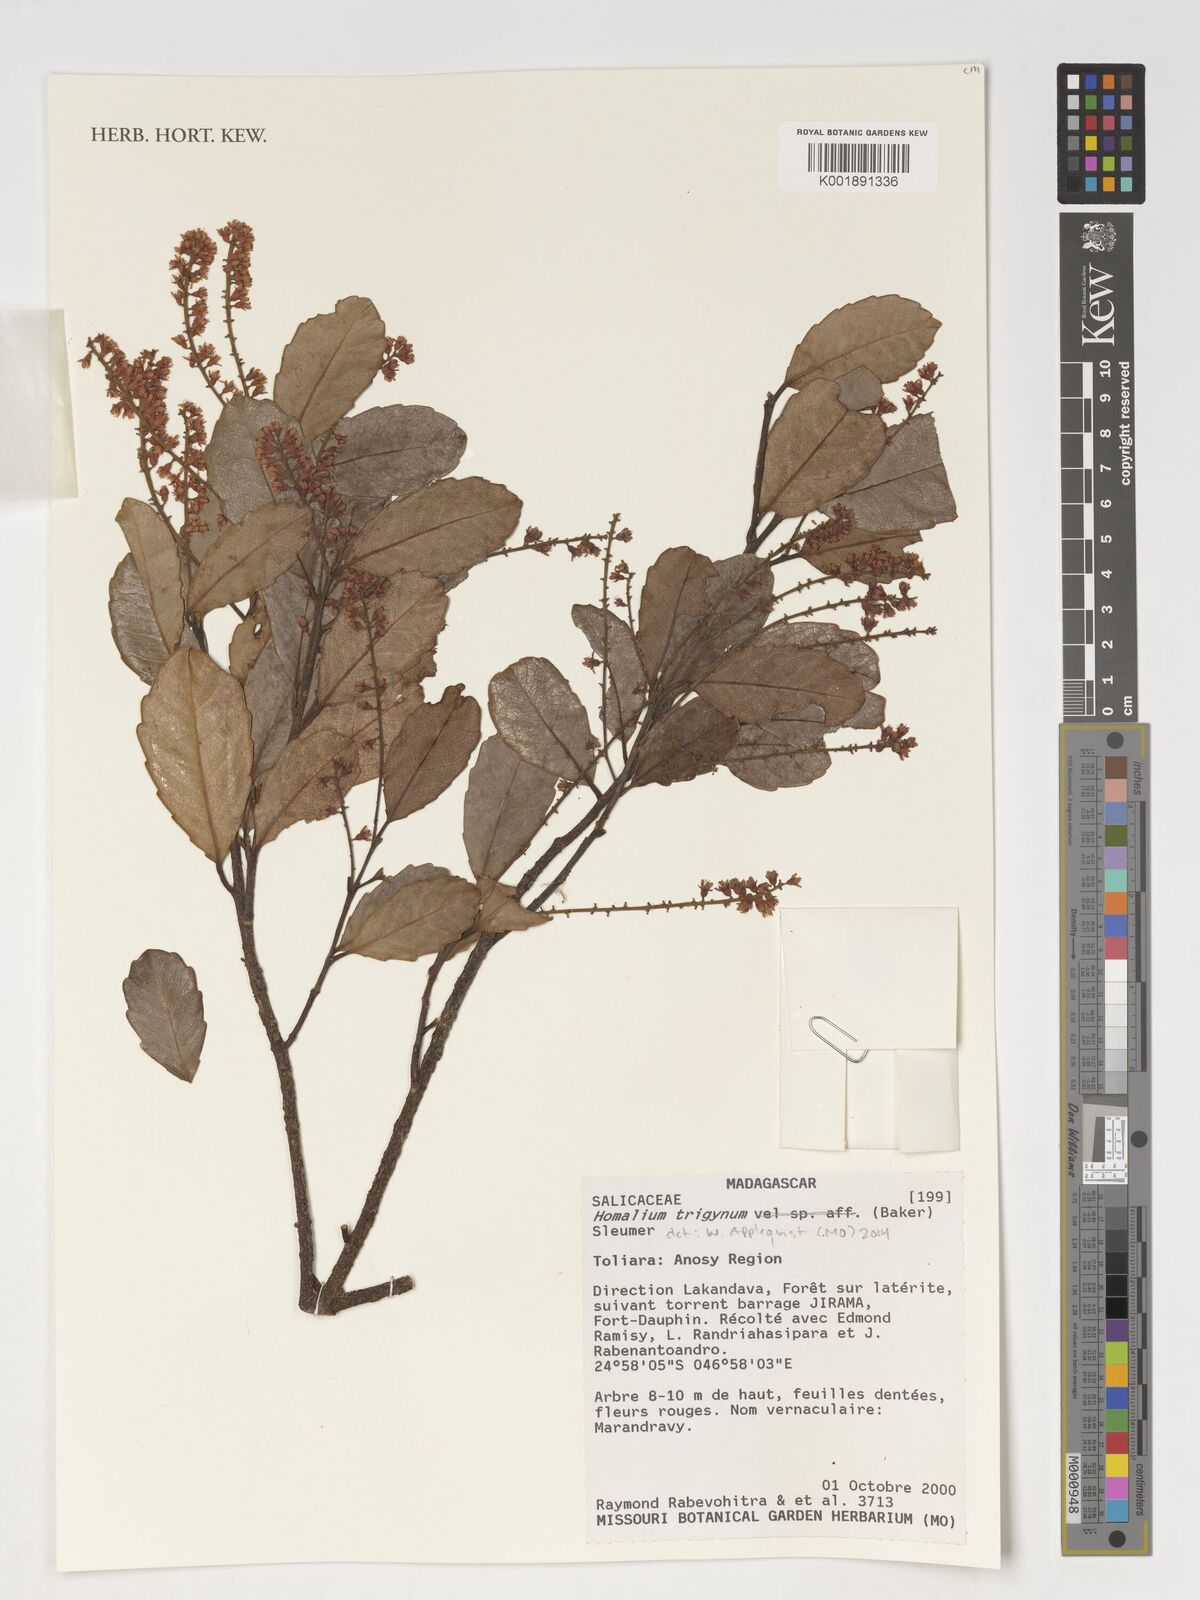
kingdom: Plantae
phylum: Tracheophyta
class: Magnoliopsida
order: Malpighiales
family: Salicaceae
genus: Homalium
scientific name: Homalium trigynum
